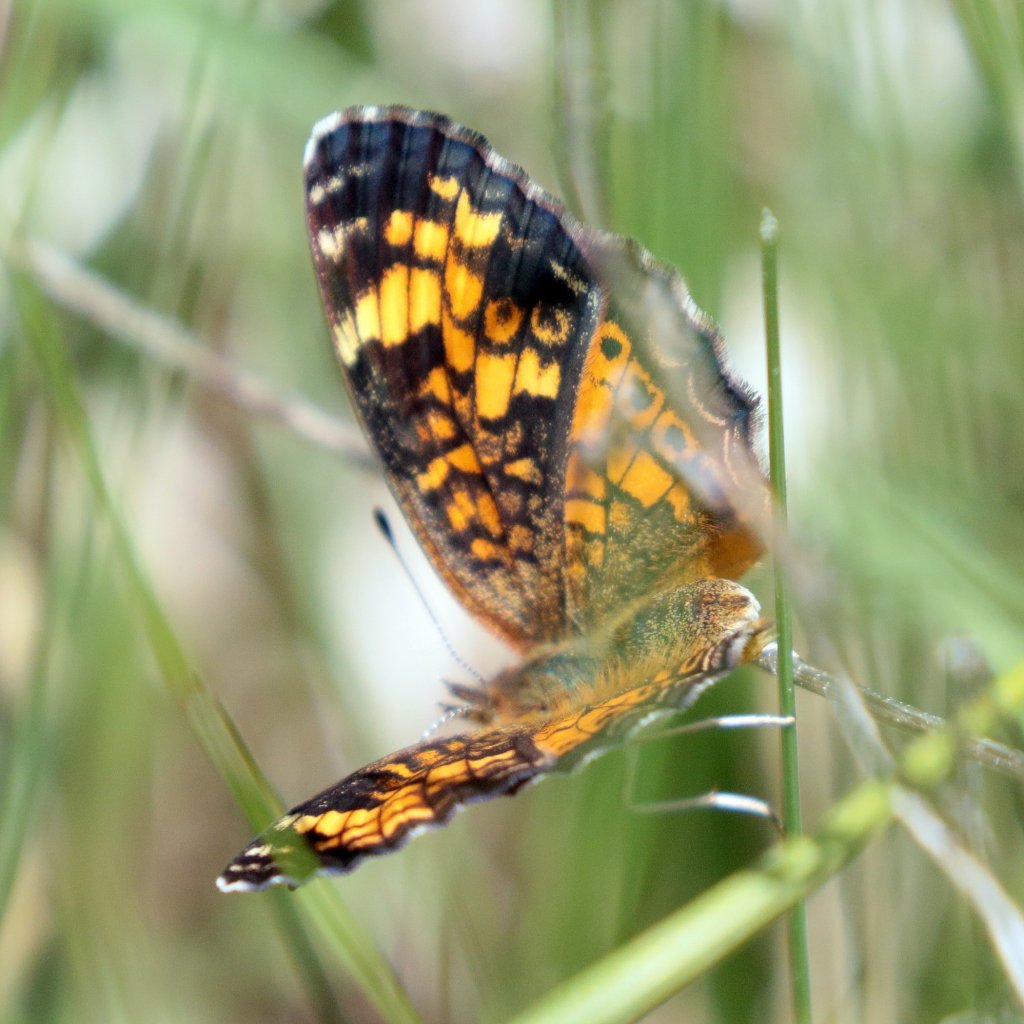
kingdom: Animalia
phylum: Arthropoda
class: Insecta
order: Lepidoptera
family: Nymphalidae
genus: Phyciodes
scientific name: Phyciodes tharos
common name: Pearl Crescent
